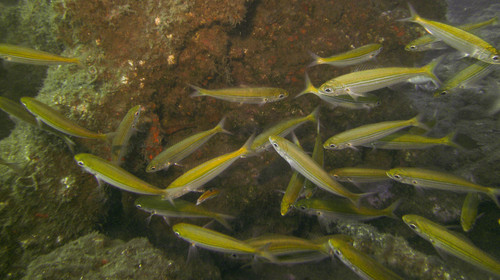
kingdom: Animalia
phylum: Chordata
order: Perciformes
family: Sparidae
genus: Boops
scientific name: Boops boops
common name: Bogue
